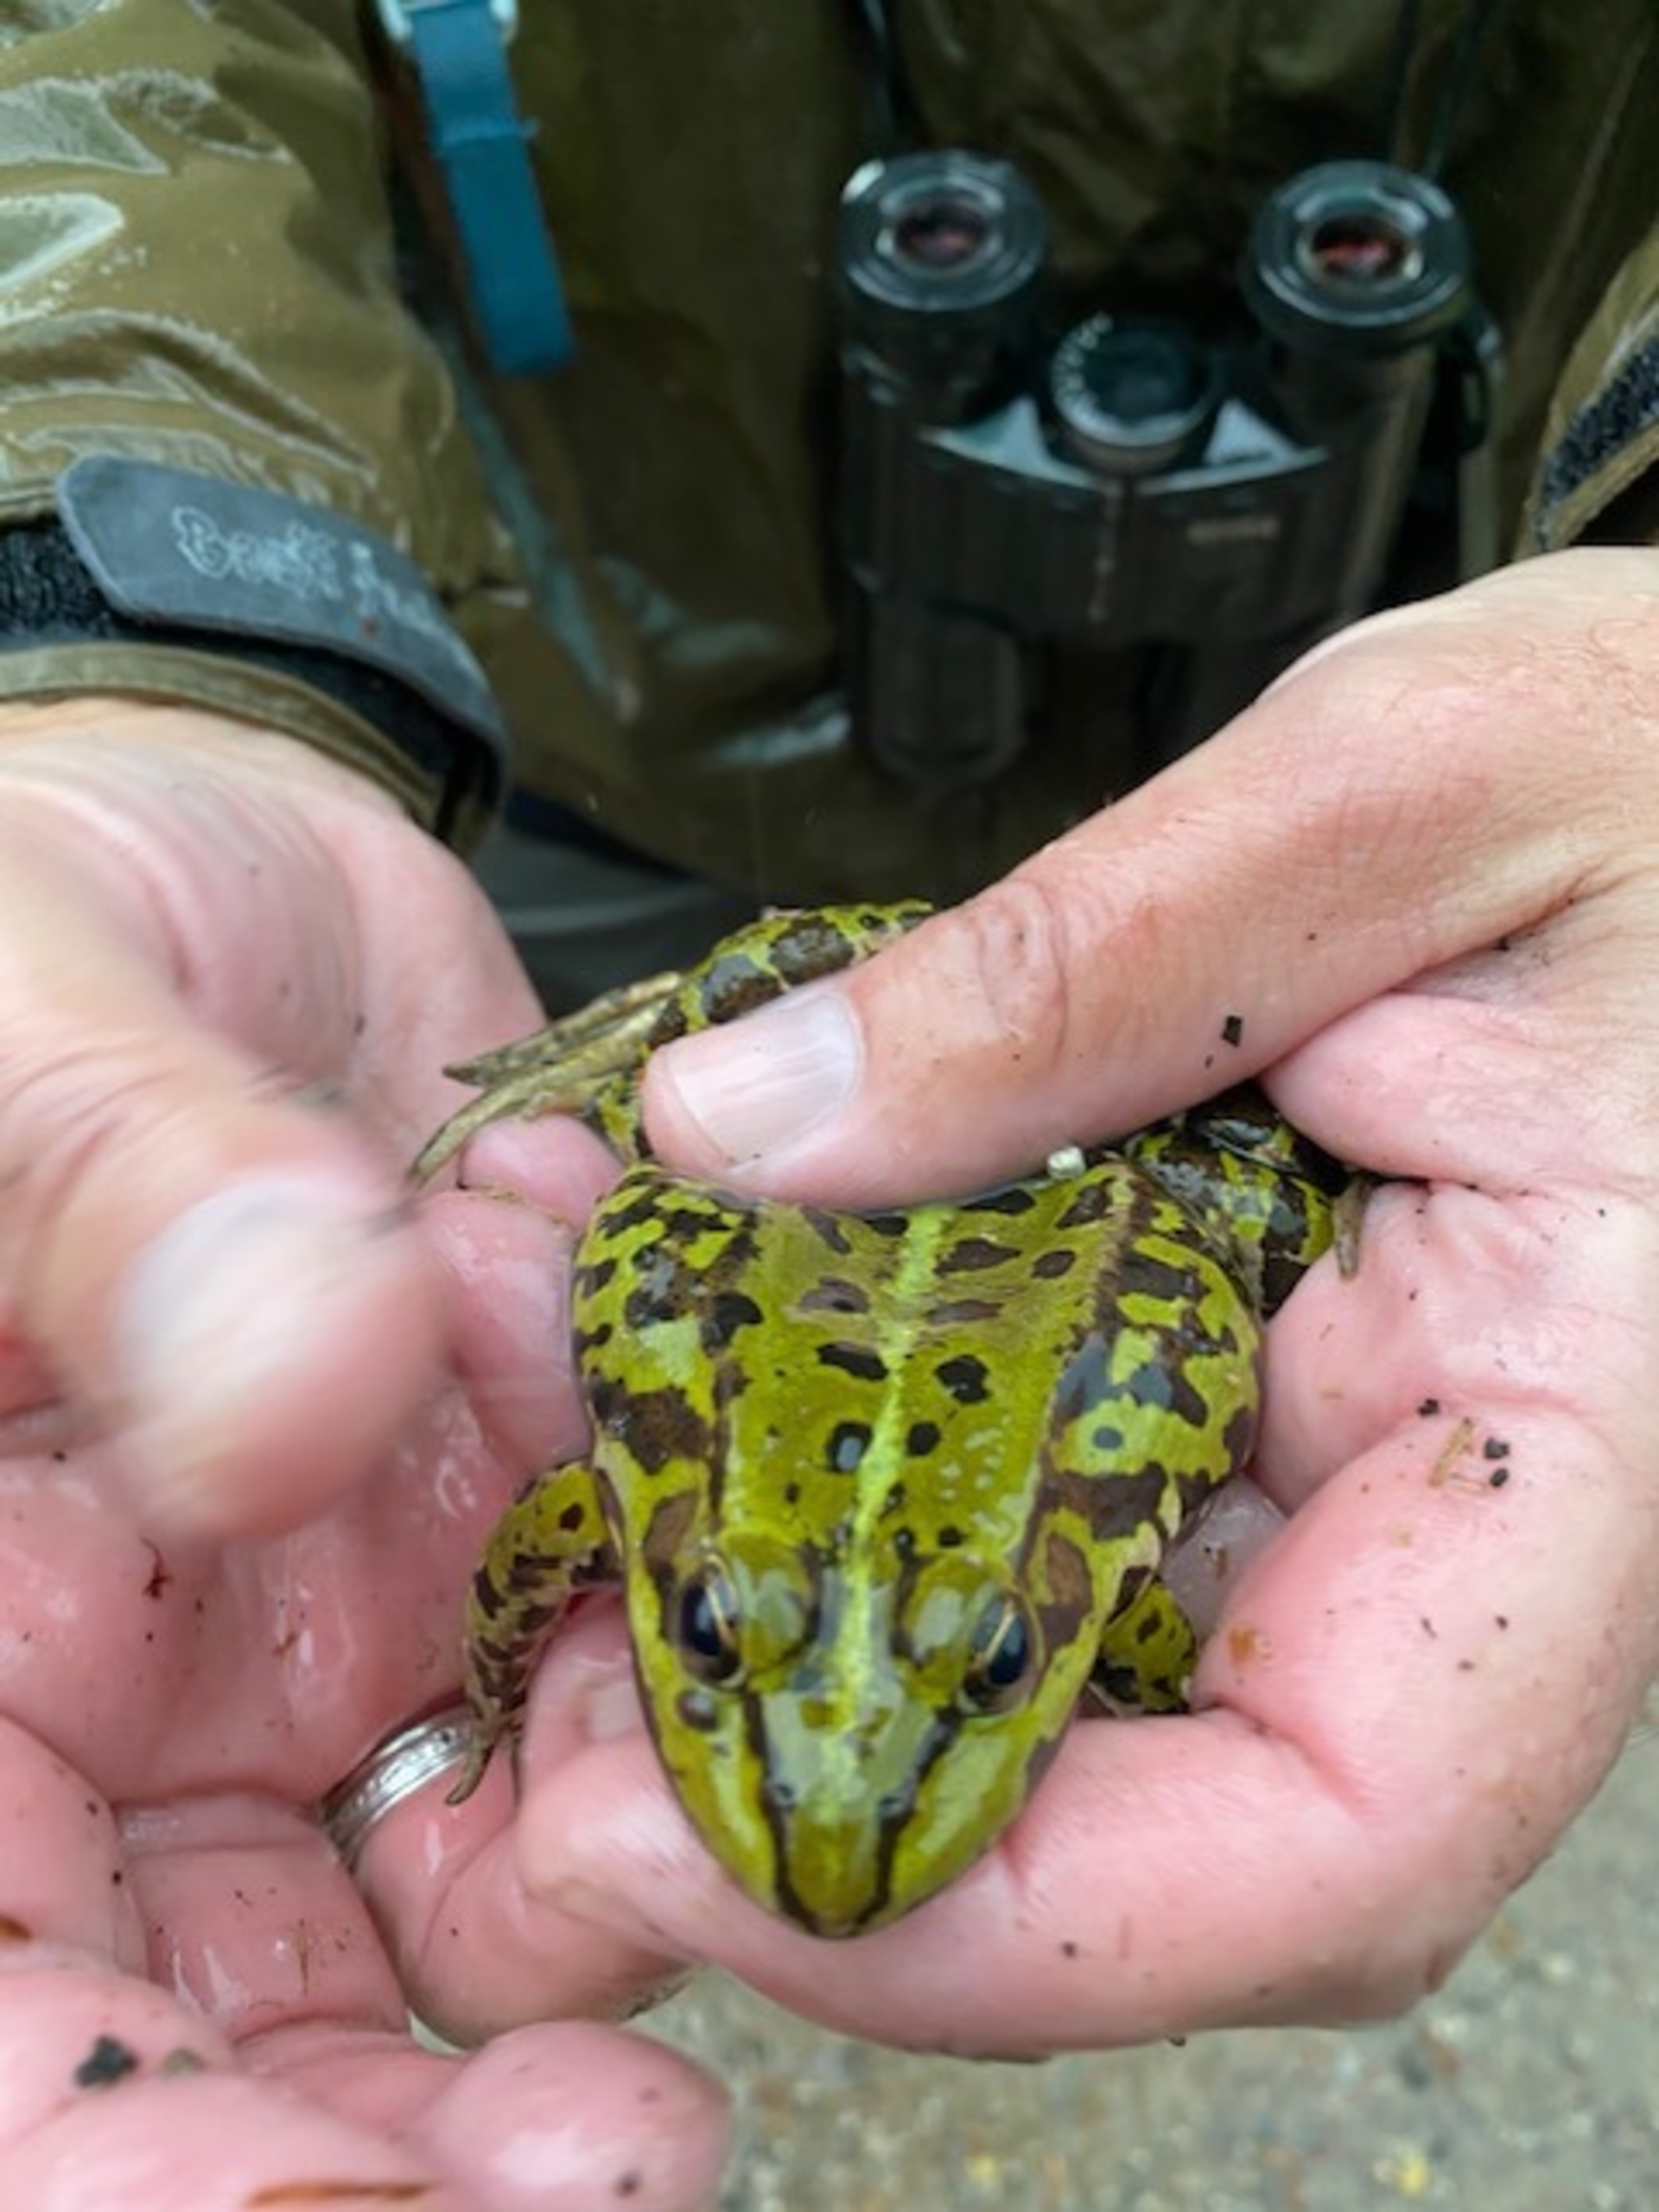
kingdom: Animalia
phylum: Chordata
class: Amphibia
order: Anura
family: Ranidae
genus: Pelophylax
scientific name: Pelophylax lessonae
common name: Grøn frø
